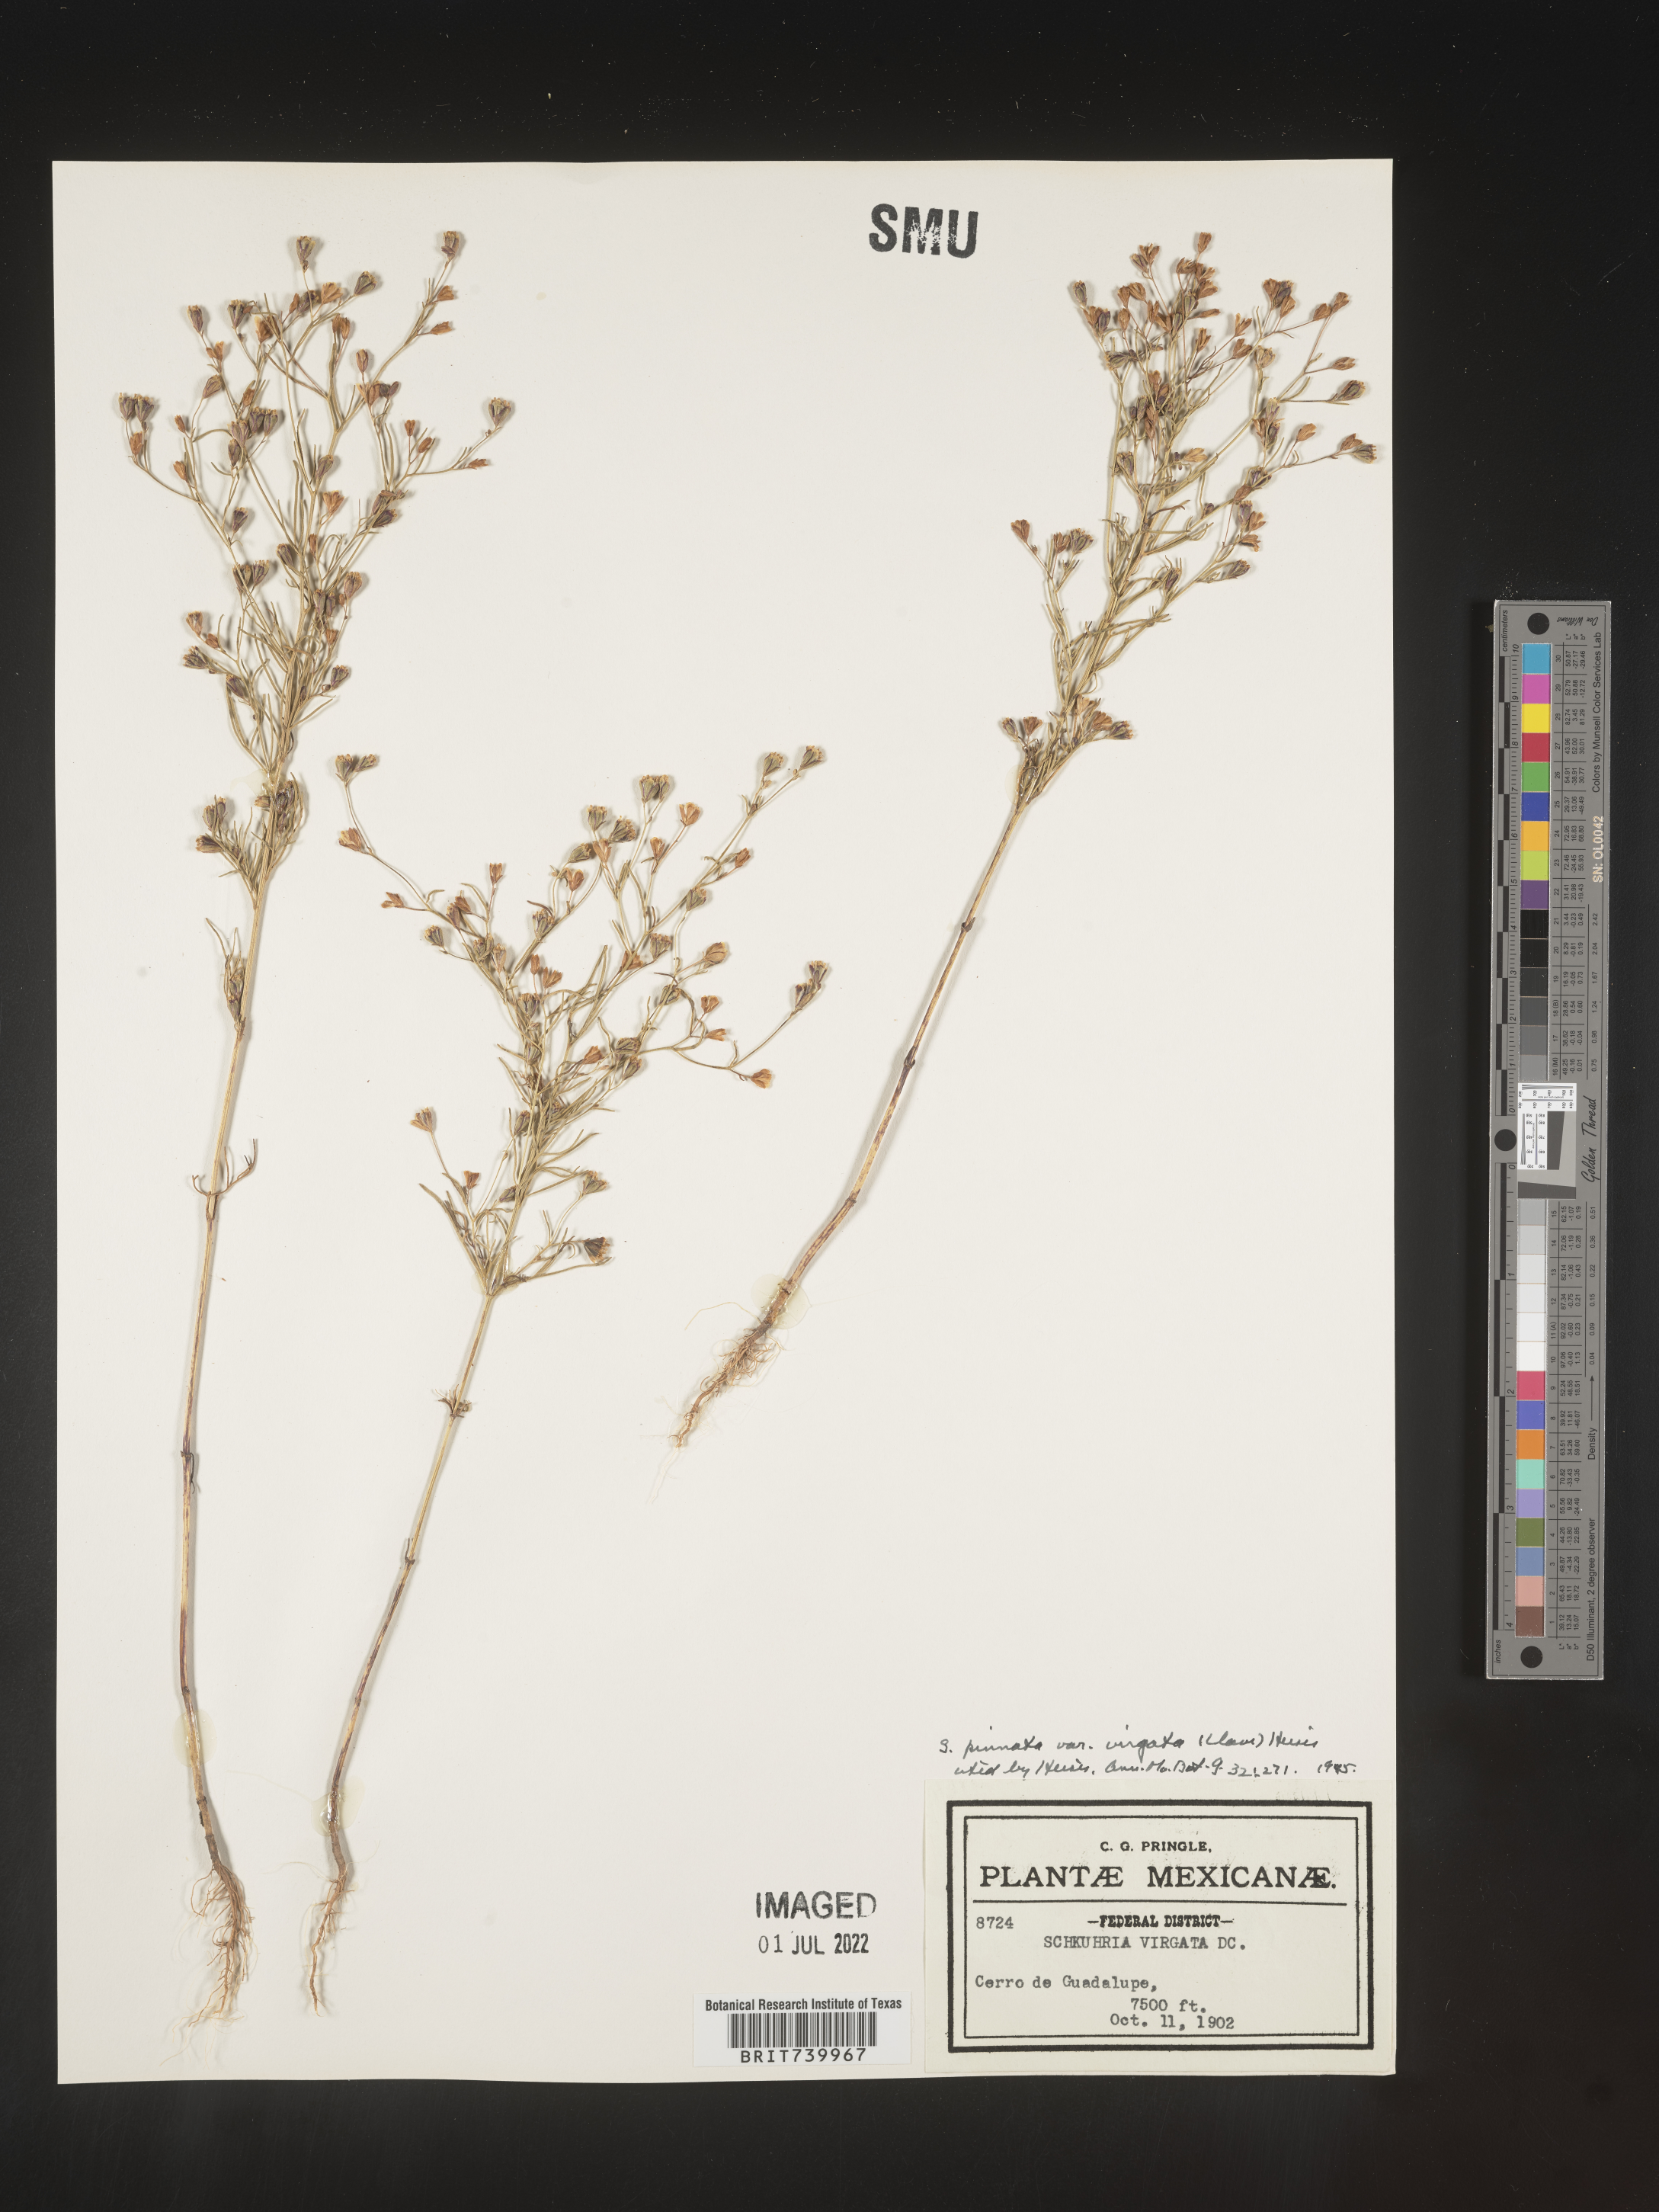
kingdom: Plantae
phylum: Tracheophyta
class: Magnoliopsida
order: Asterales
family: Asteraceae
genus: Schkuhria
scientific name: Schkuhria
